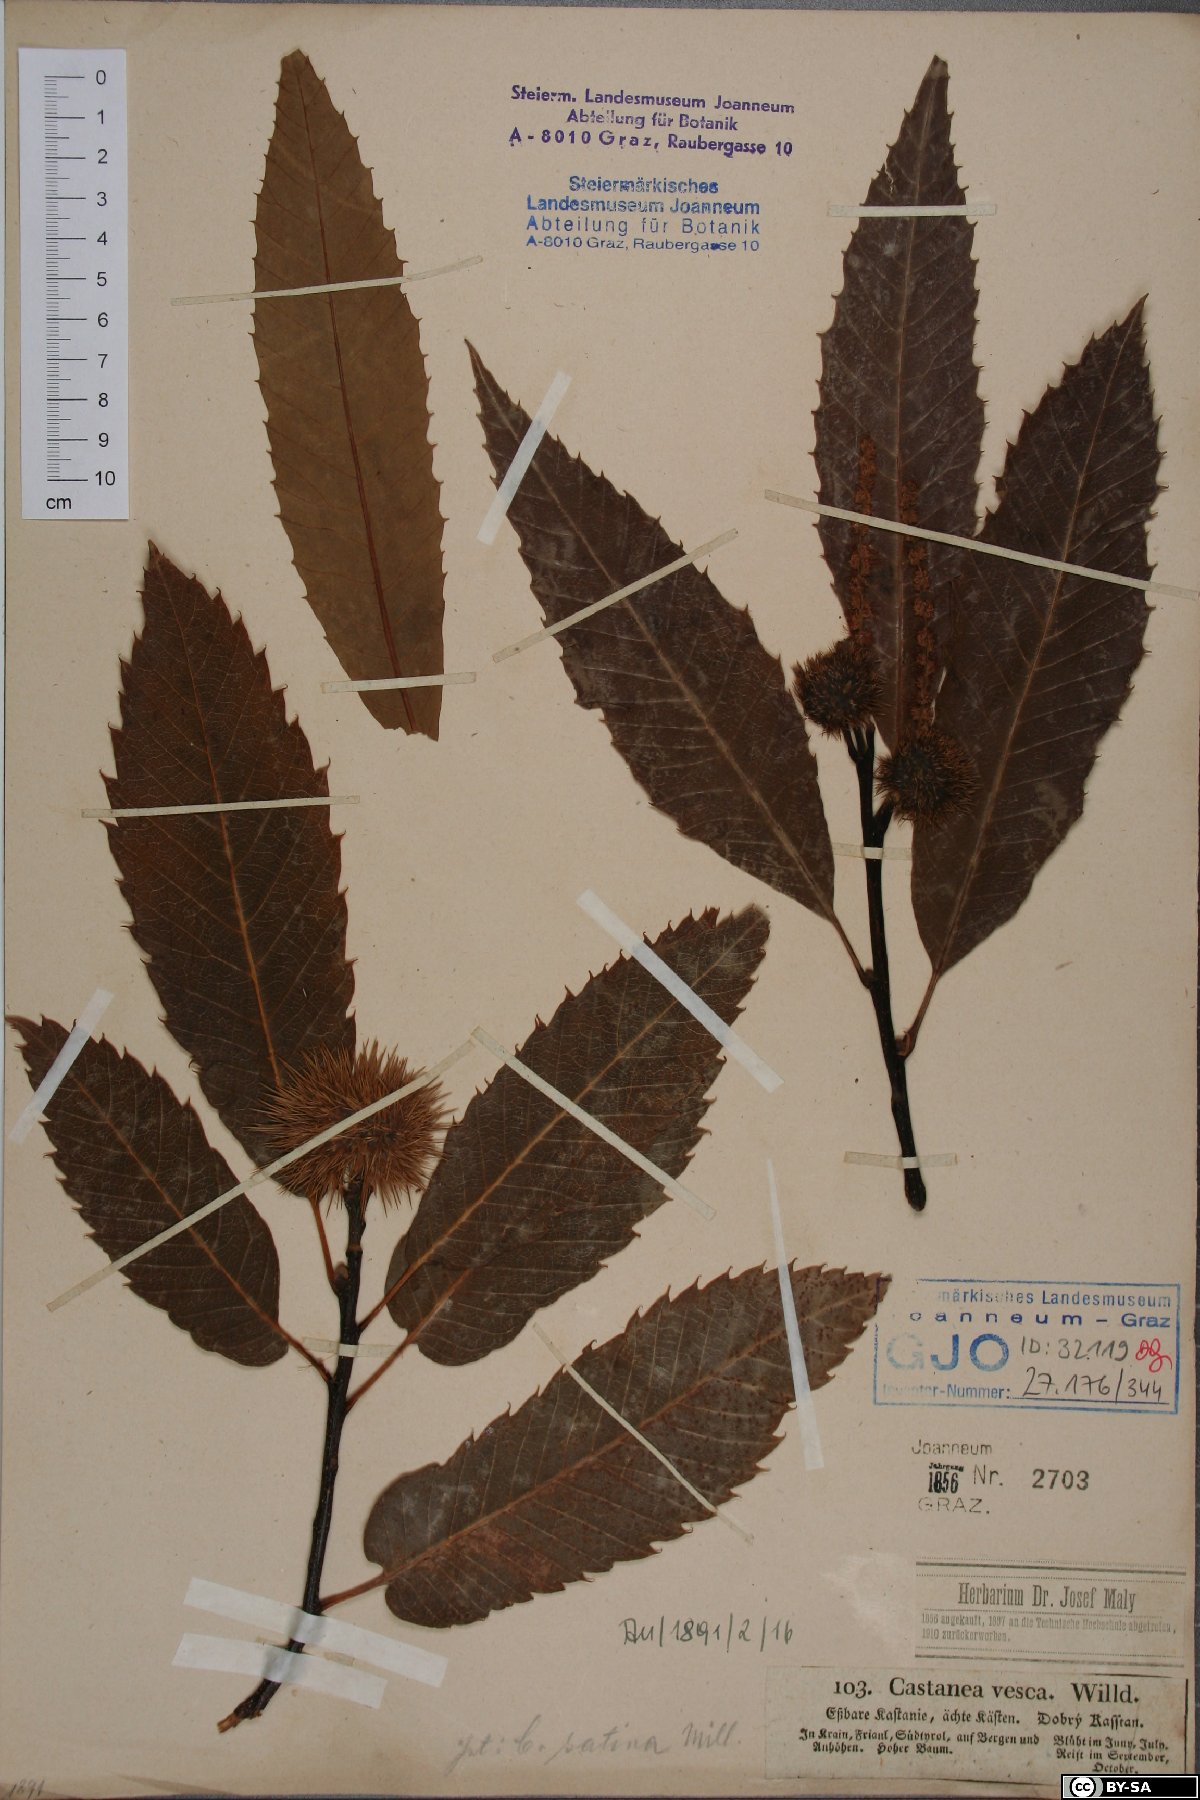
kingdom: Plantae
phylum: Tracheophyta
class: Magnoliopsida
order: Fagales
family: Fagaceae
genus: Castanea
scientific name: Castanea sativa
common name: Sweet chestnut
